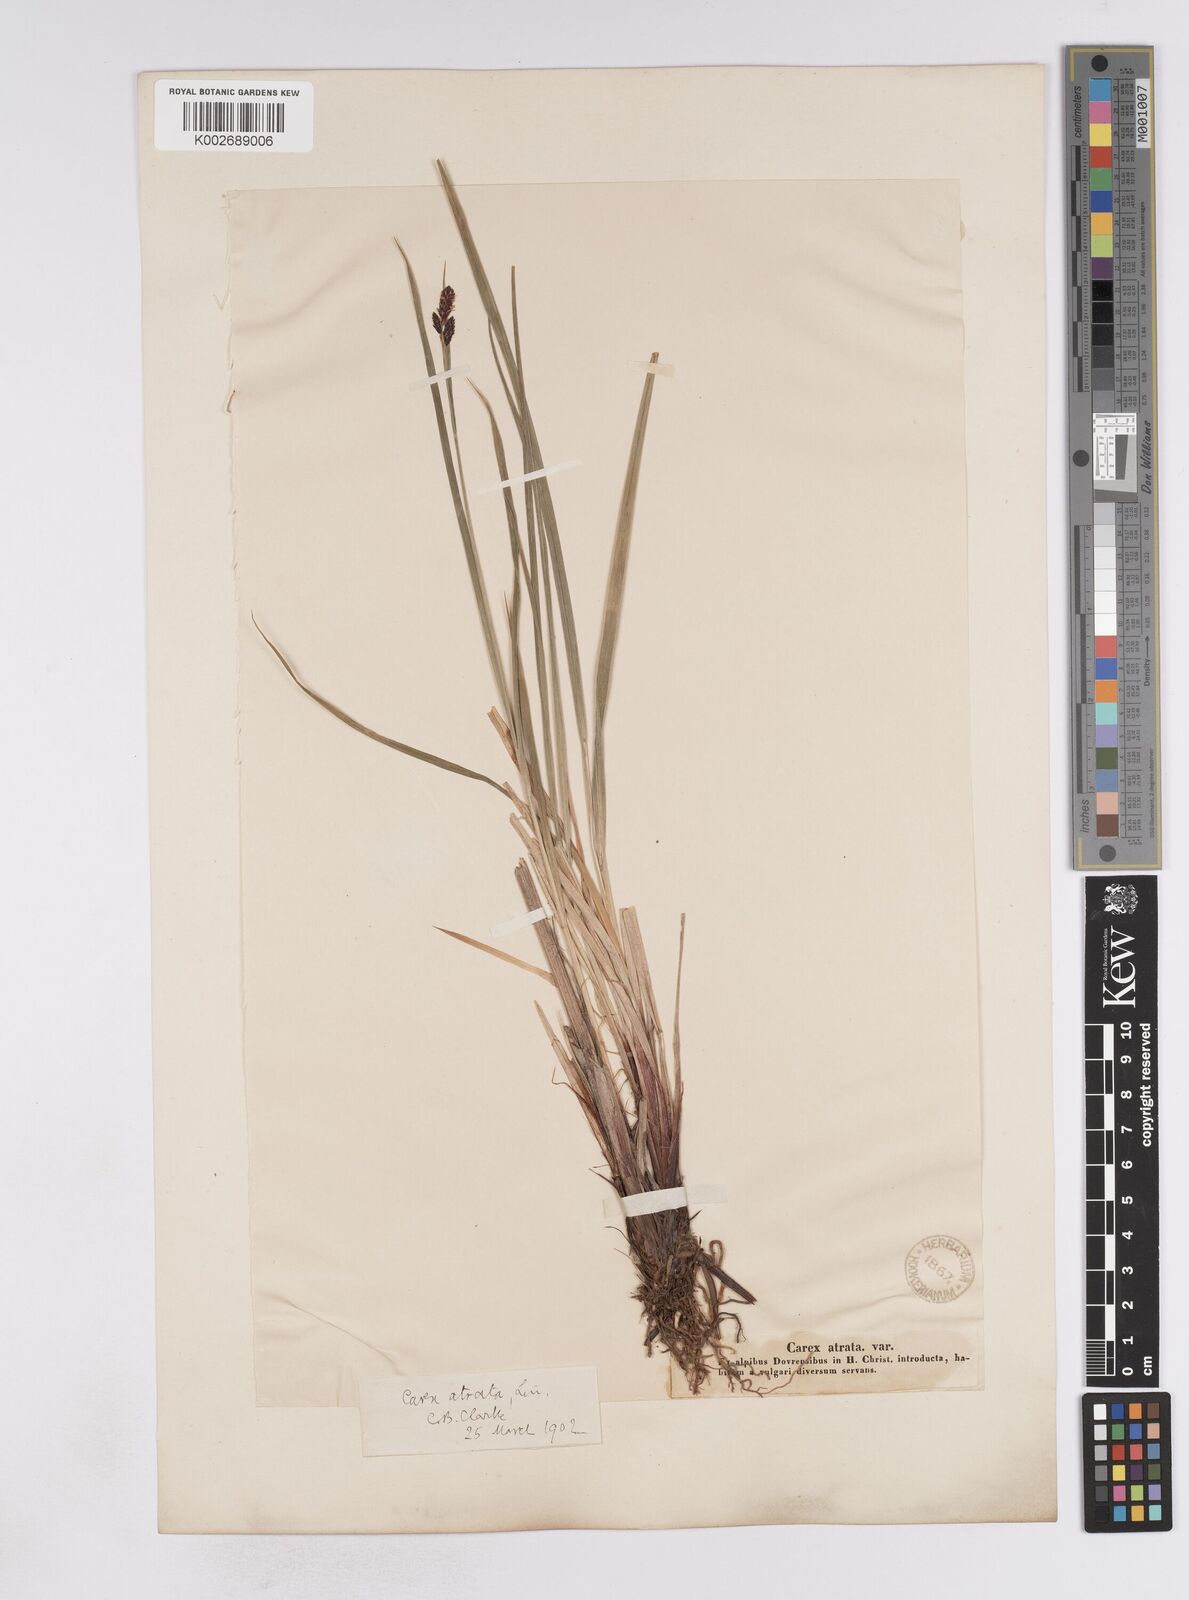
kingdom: Plantae
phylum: Tracheophyta
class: Liliopsida
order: Poales
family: Cyperaceae
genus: Carex
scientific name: Carex atrata
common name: Black alpine sedge
